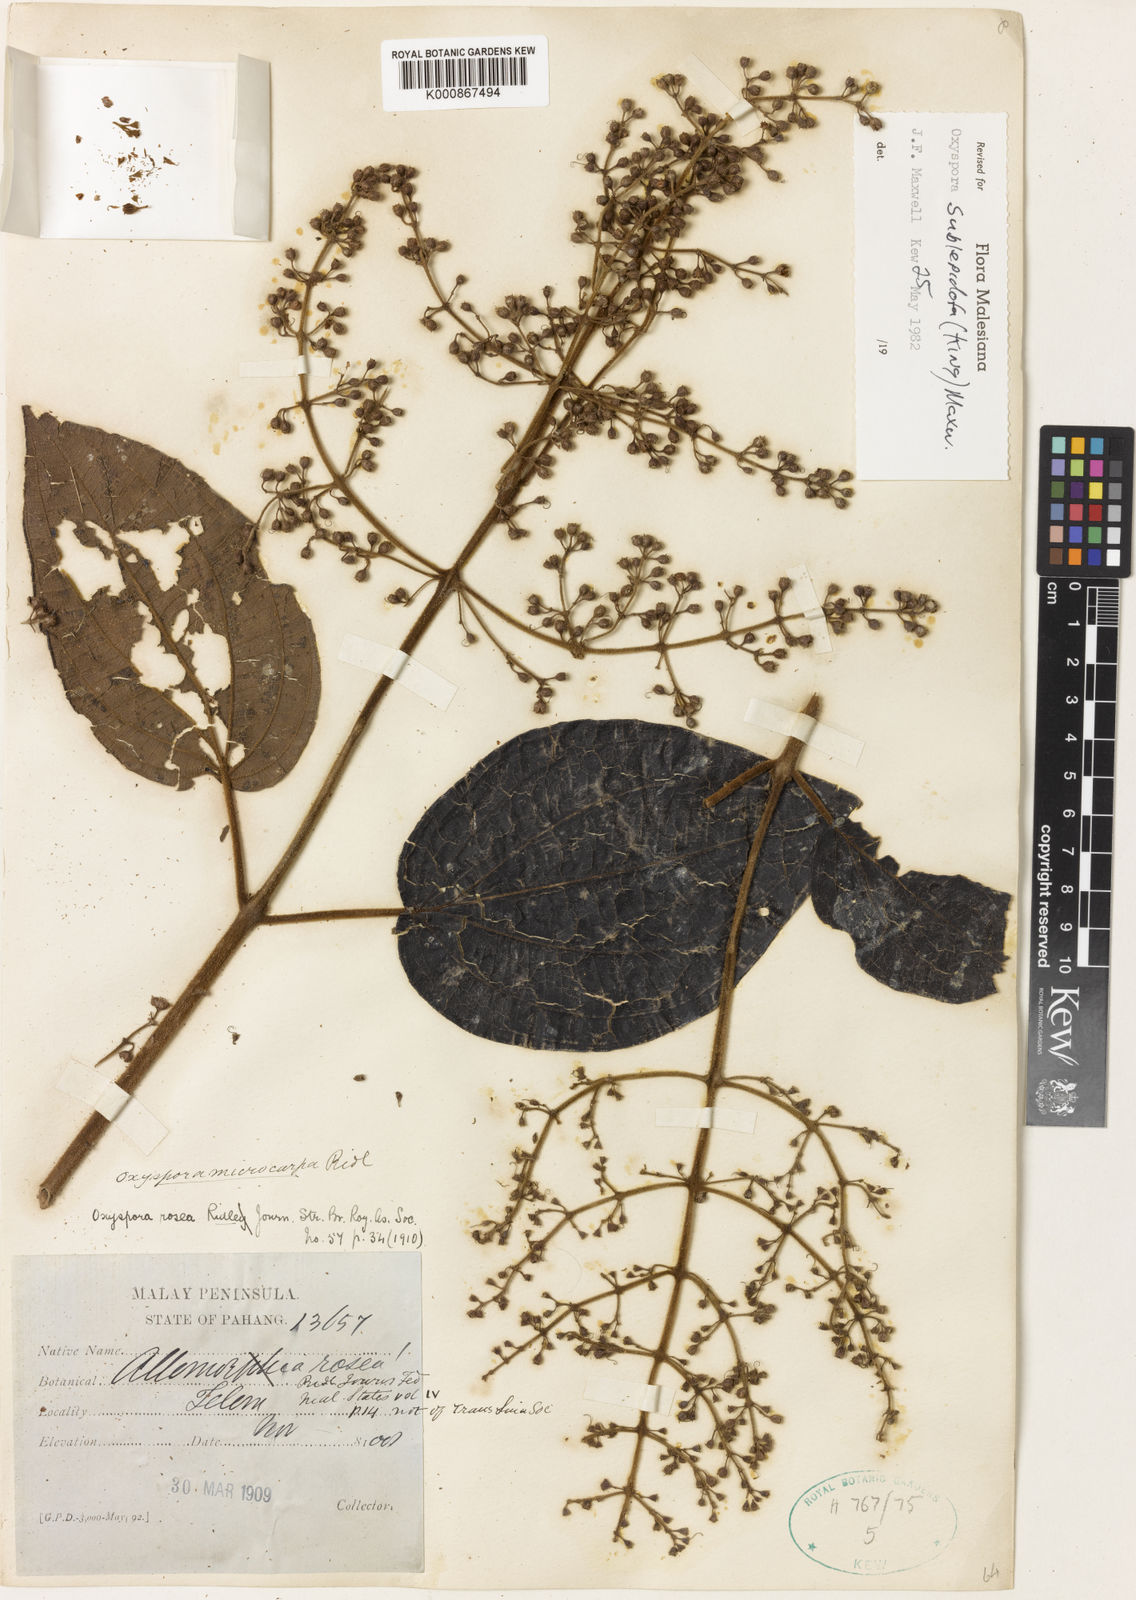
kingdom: Plantae
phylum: Tracheophyta
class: Magnoliopsida
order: Myrtales
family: Melastomataceae
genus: Allomorphia
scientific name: Allomorphia rosea
